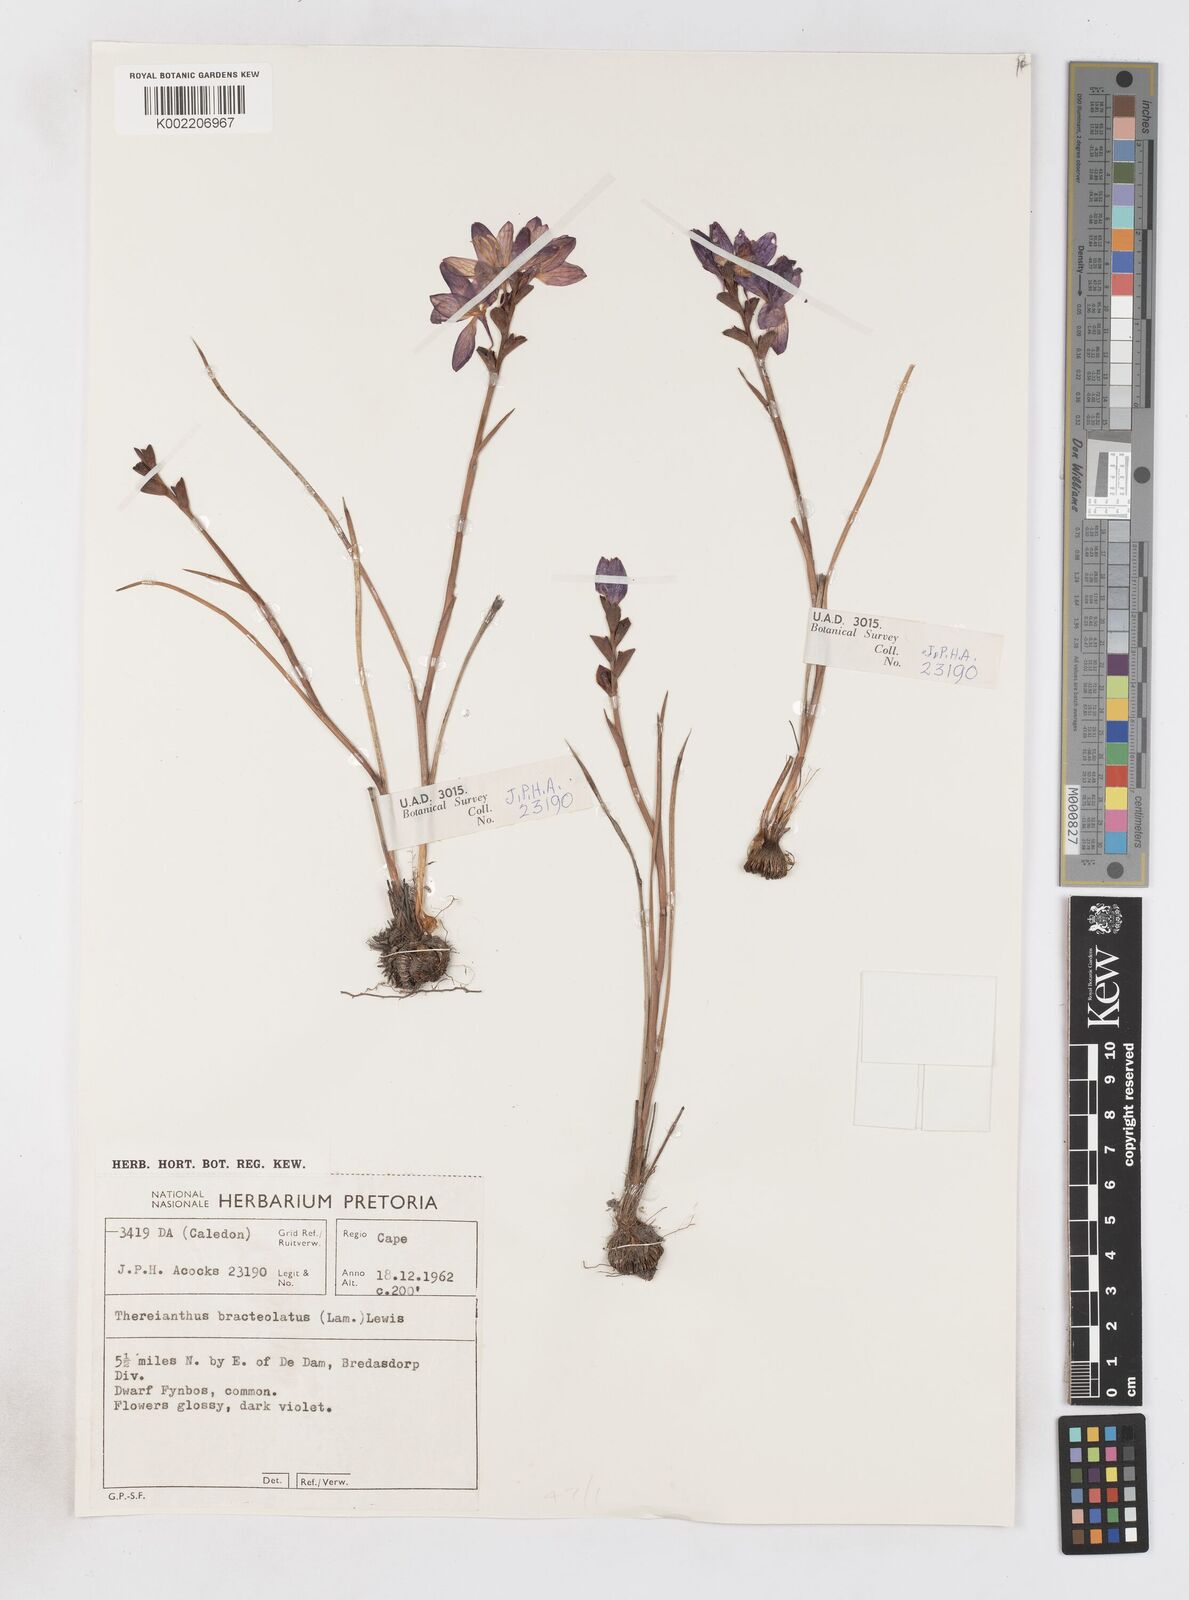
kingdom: Plantae
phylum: Tracheophyta
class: Liliopsida
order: Asparagales
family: Iridaceae
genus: Thereianthus
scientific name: Thereianthus bracteolatus
